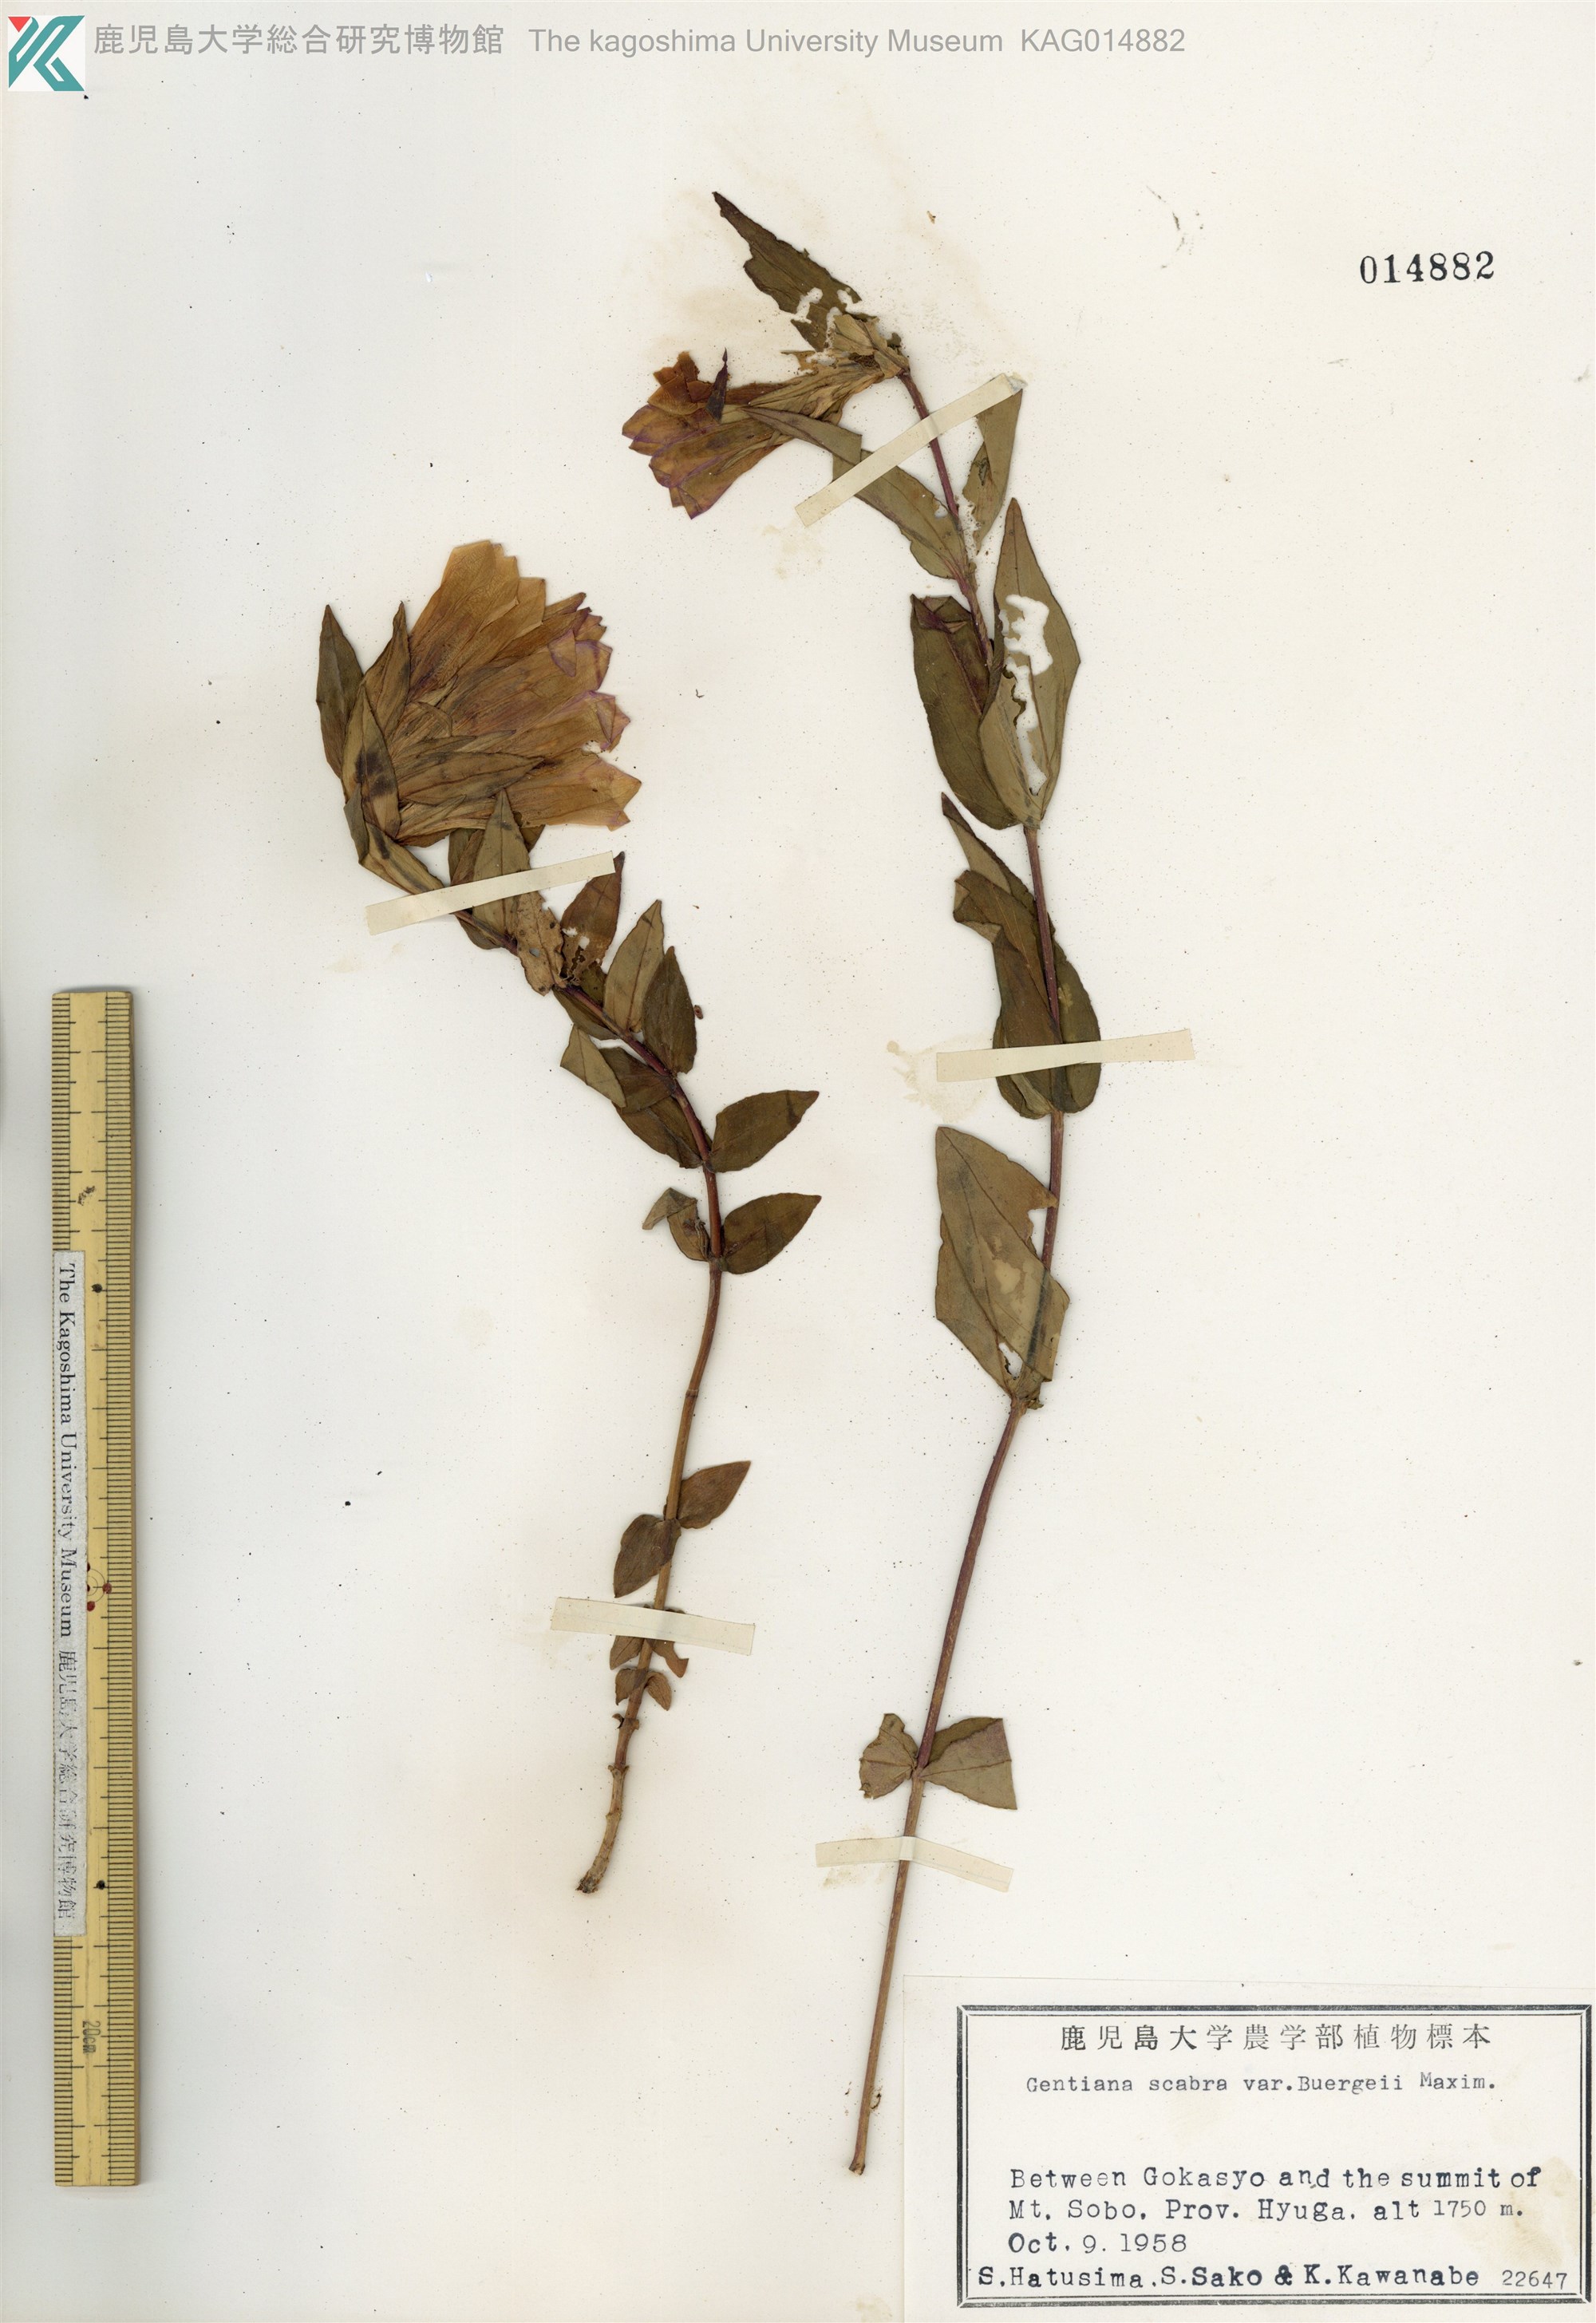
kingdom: Plantae
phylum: Tracheophyta
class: Magnoliopsida
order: Gentianales
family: Gentianaceae
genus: Gentiana
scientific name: Gentiana scabra
